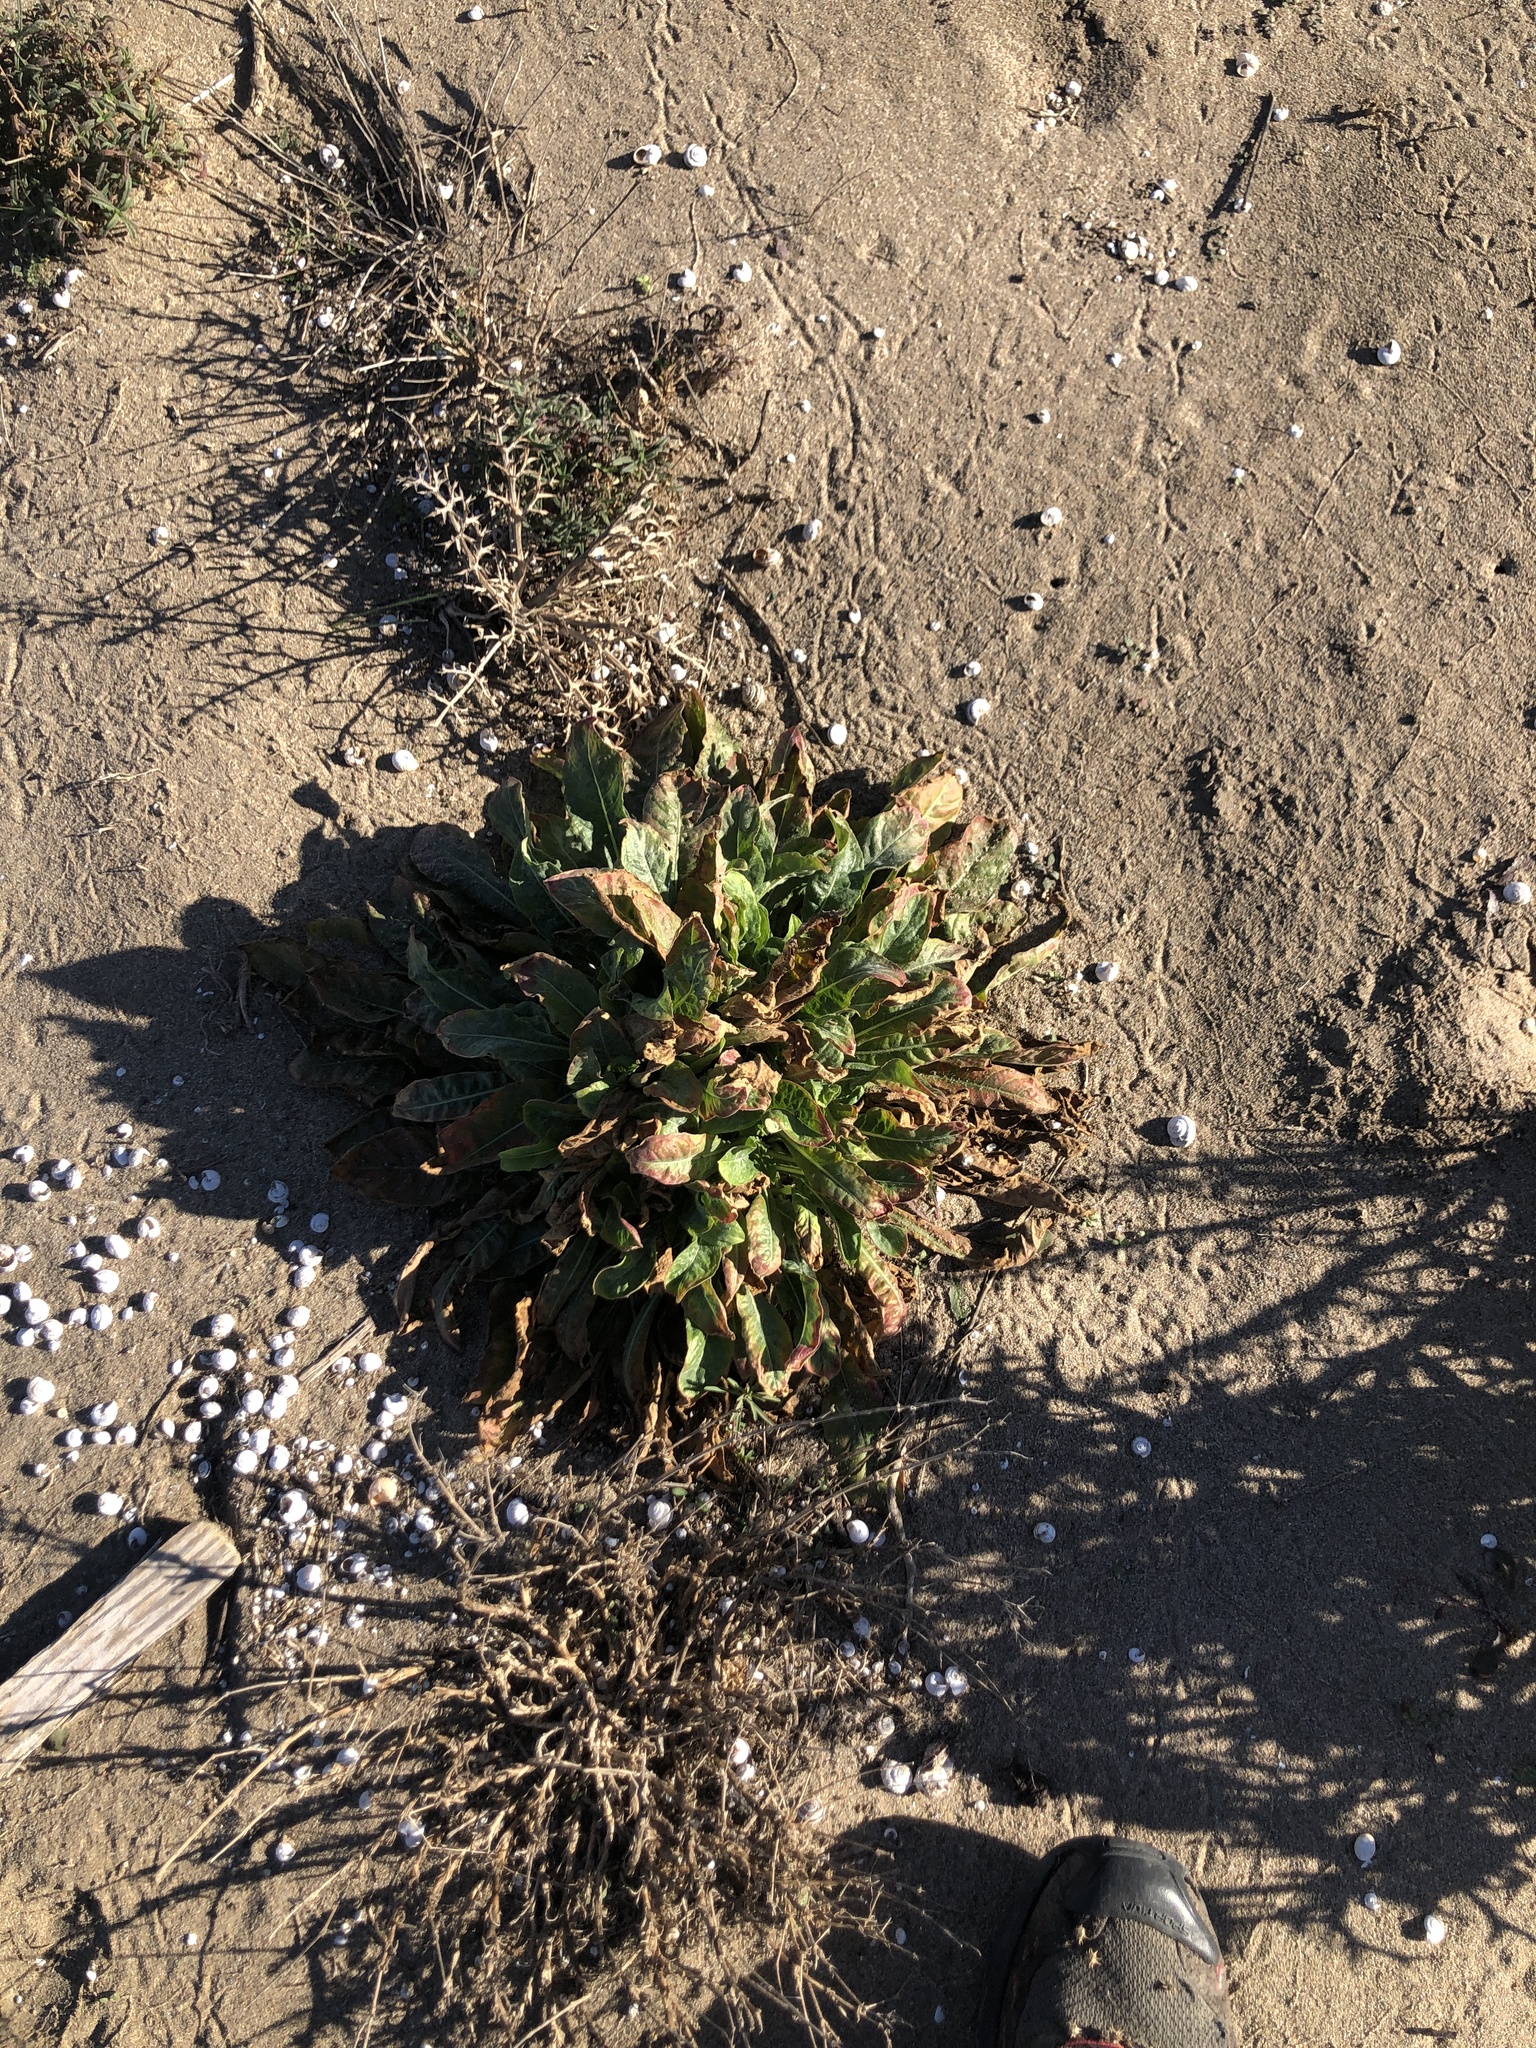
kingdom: Plantae
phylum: Tracheophyta
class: Magnoliopsida
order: Myrtales
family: Onagraceae
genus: Oenothera
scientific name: Oenothera glazioviana
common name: Large-flowered evening-primrose
